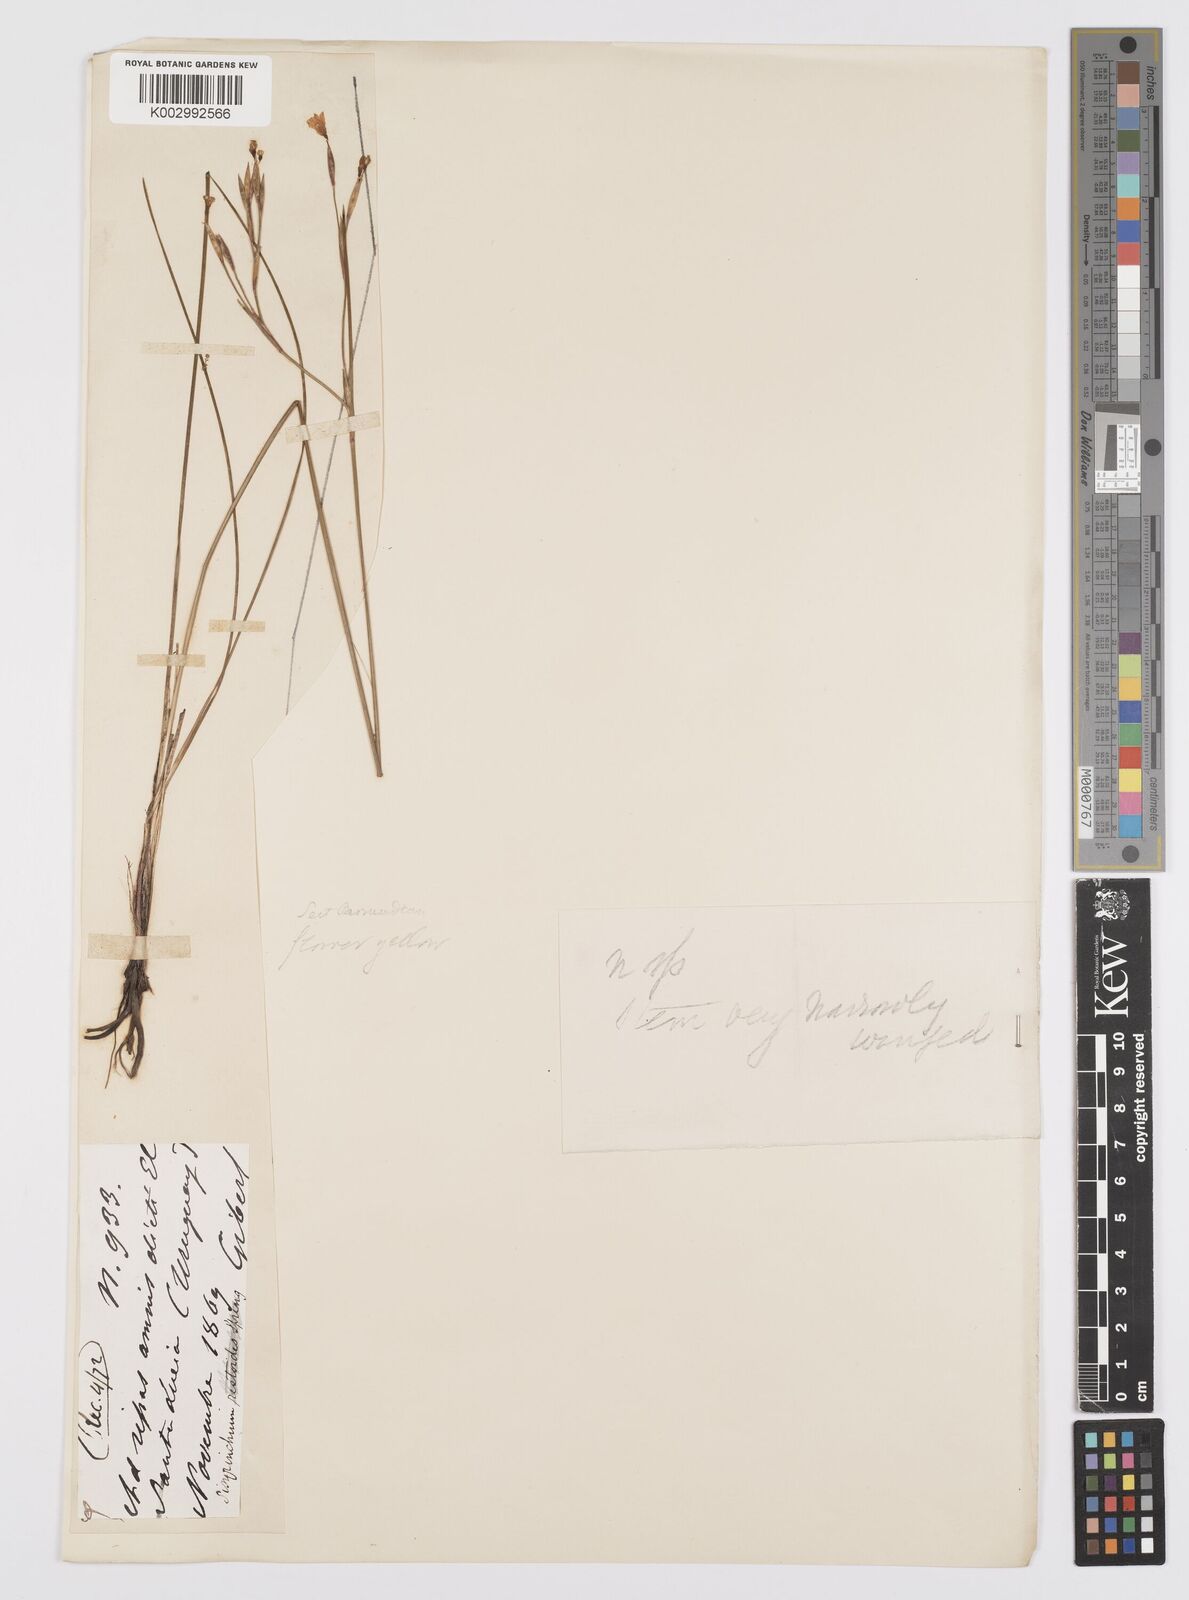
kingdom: Plantae
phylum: Tracheophyta
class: Liliopsida
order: Asparagales
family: Iridaceae
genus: Sisyrinchium
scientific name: Sisyrinchium unguiculatum
